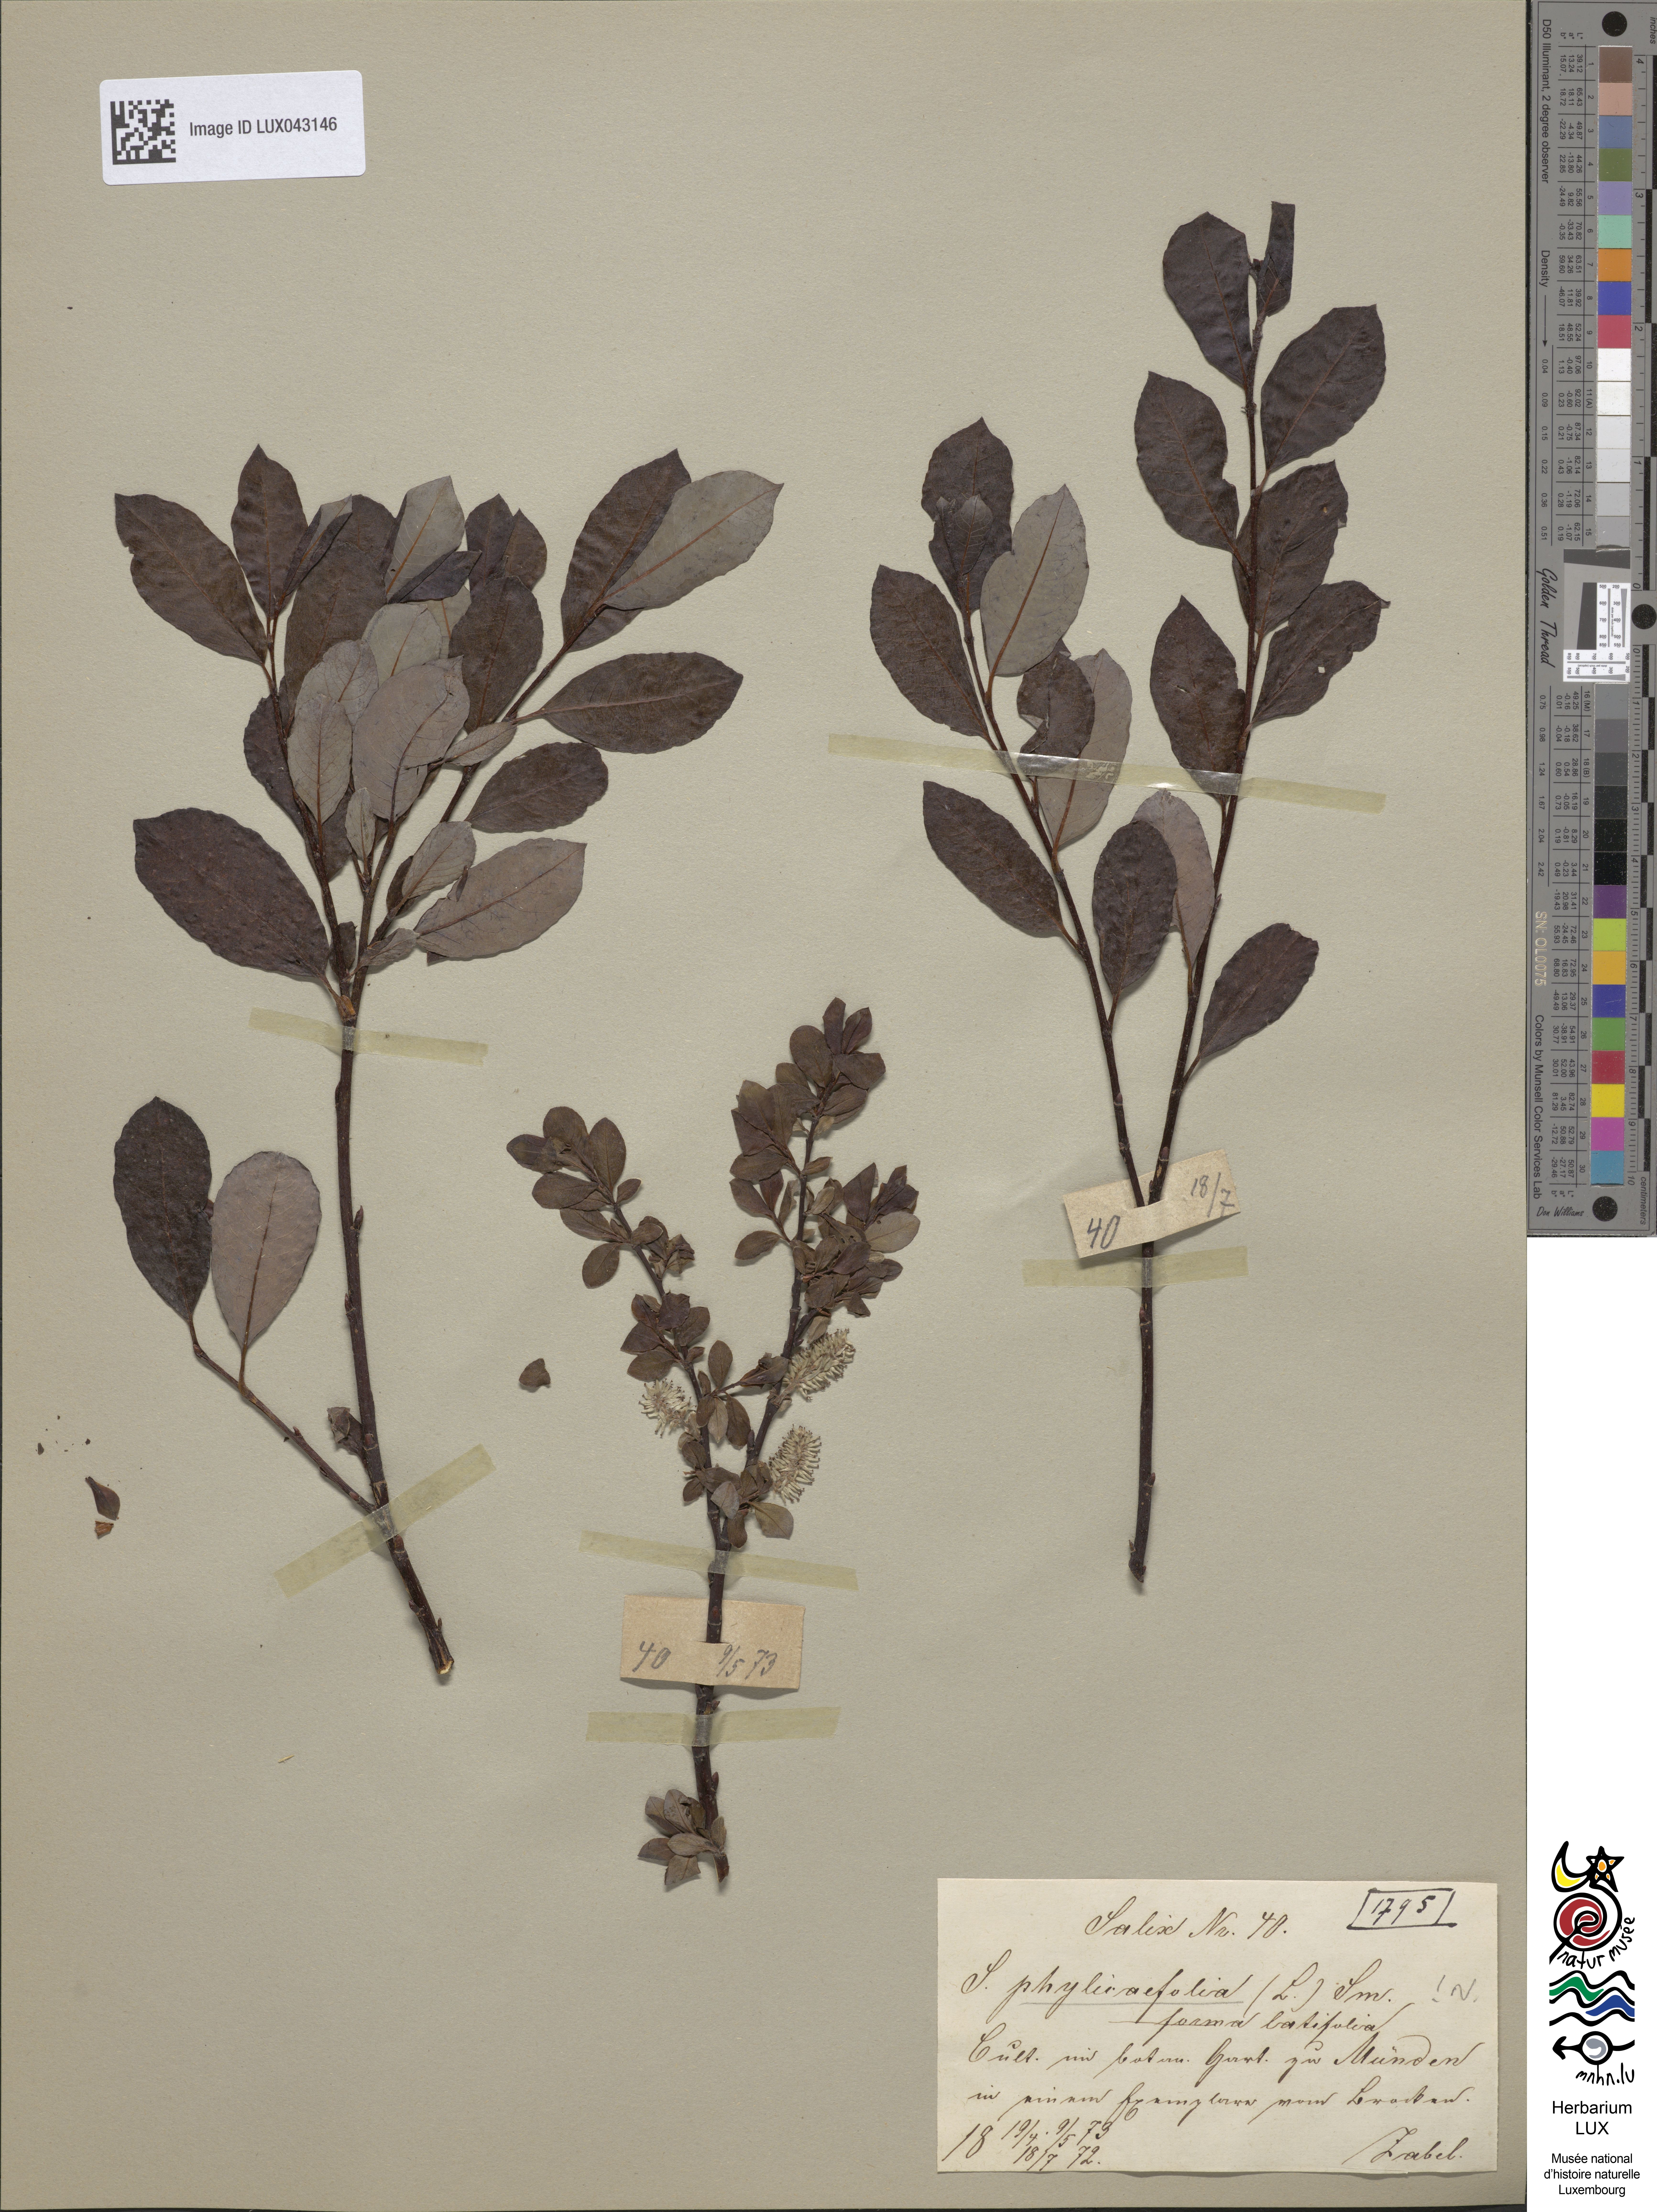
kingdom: Plantae
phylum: Tracheophyta
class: Magnoliopsida
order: Malpighiales
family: Salicaceae
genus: Salix
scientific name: Salix bicolor
